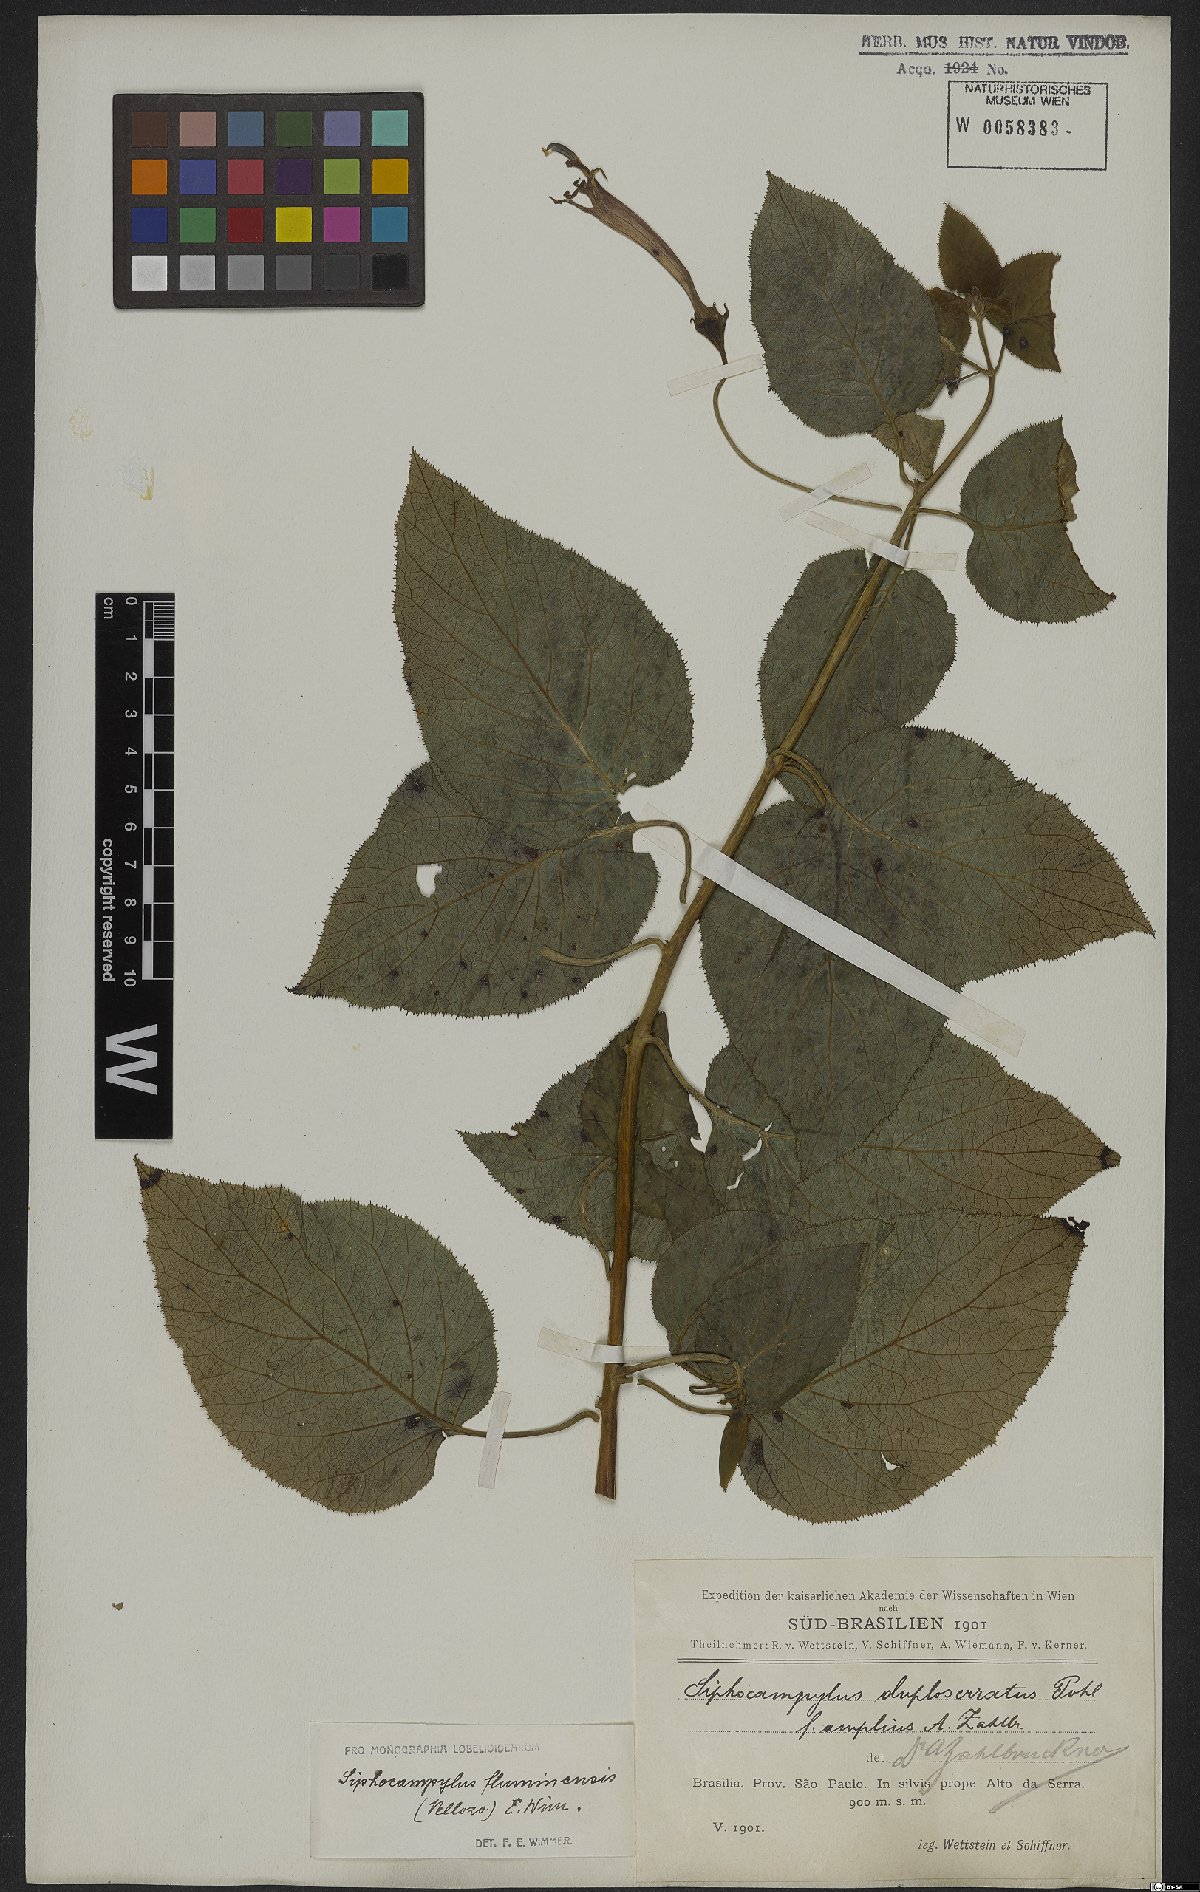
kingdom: Plantae
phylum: Tracheophyta
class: Magnoliopsida
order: Asterales
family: Campanulaceae
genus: Siphocampylus
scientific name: Siphocampylus fluminensis
